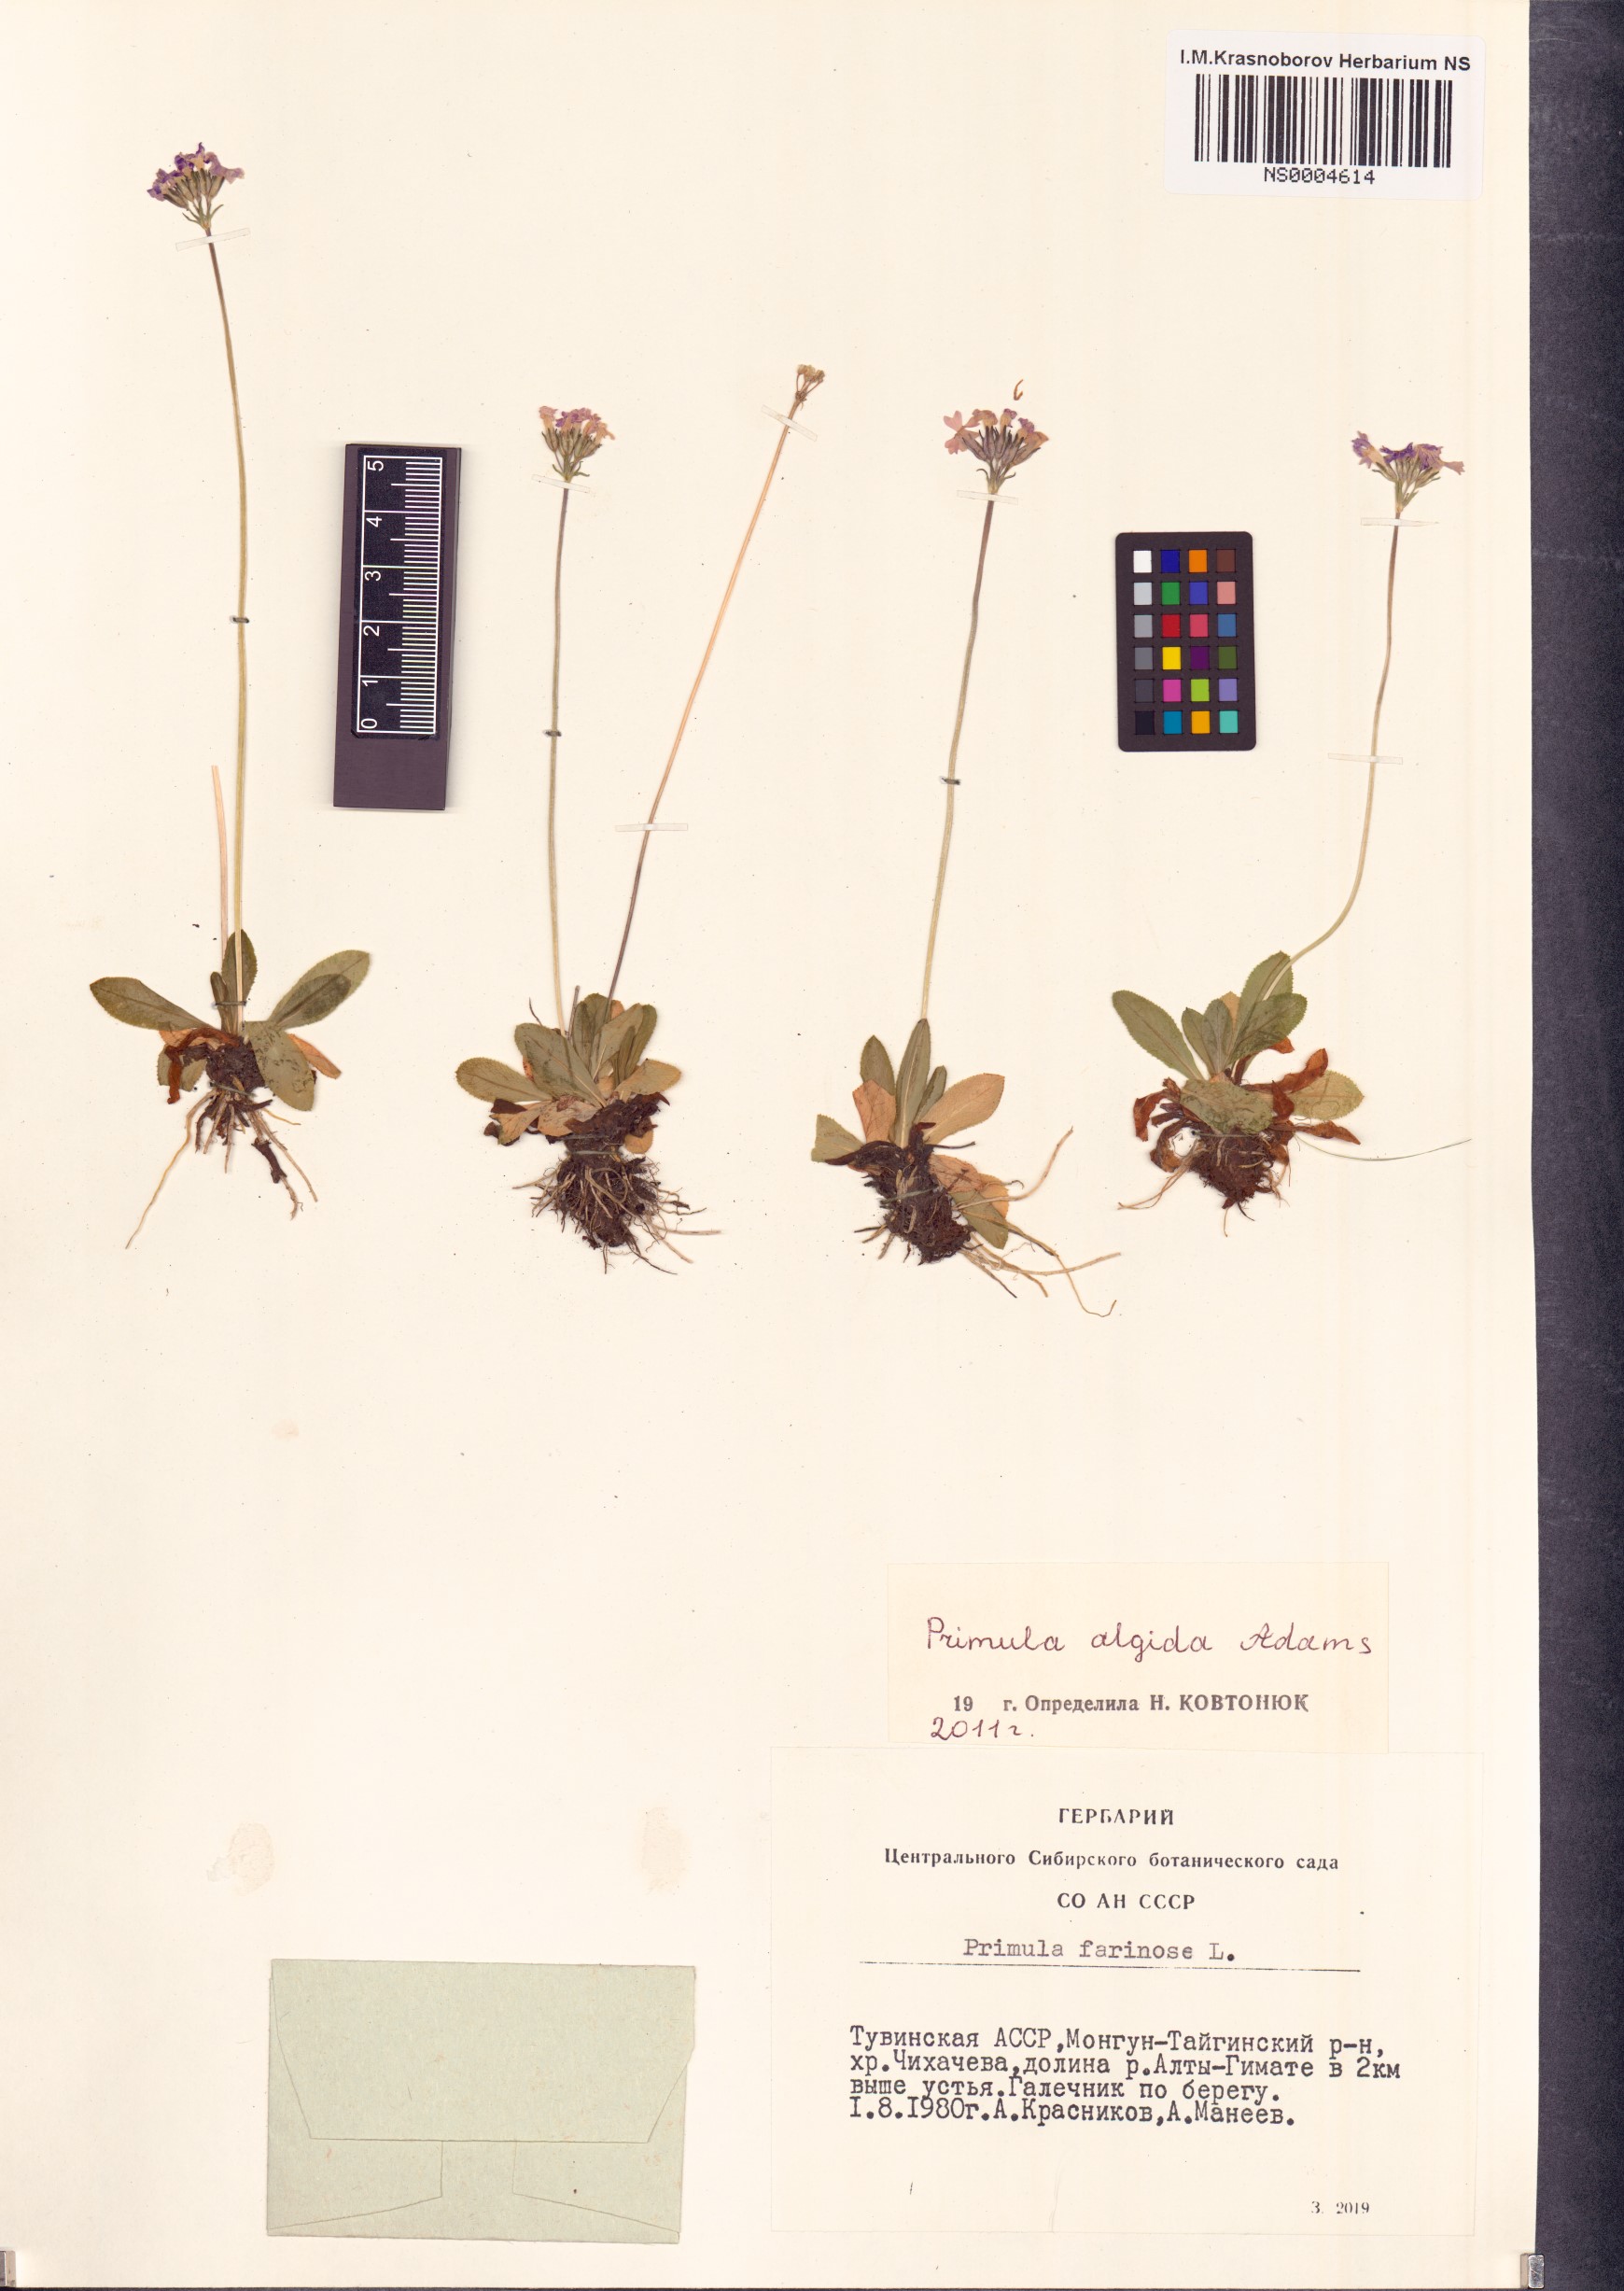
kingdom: Plantae
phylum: Tracheophyta
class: Magnoliopsida
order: Ericales
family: Primulaceae
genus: Primula
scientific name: Primula algida
